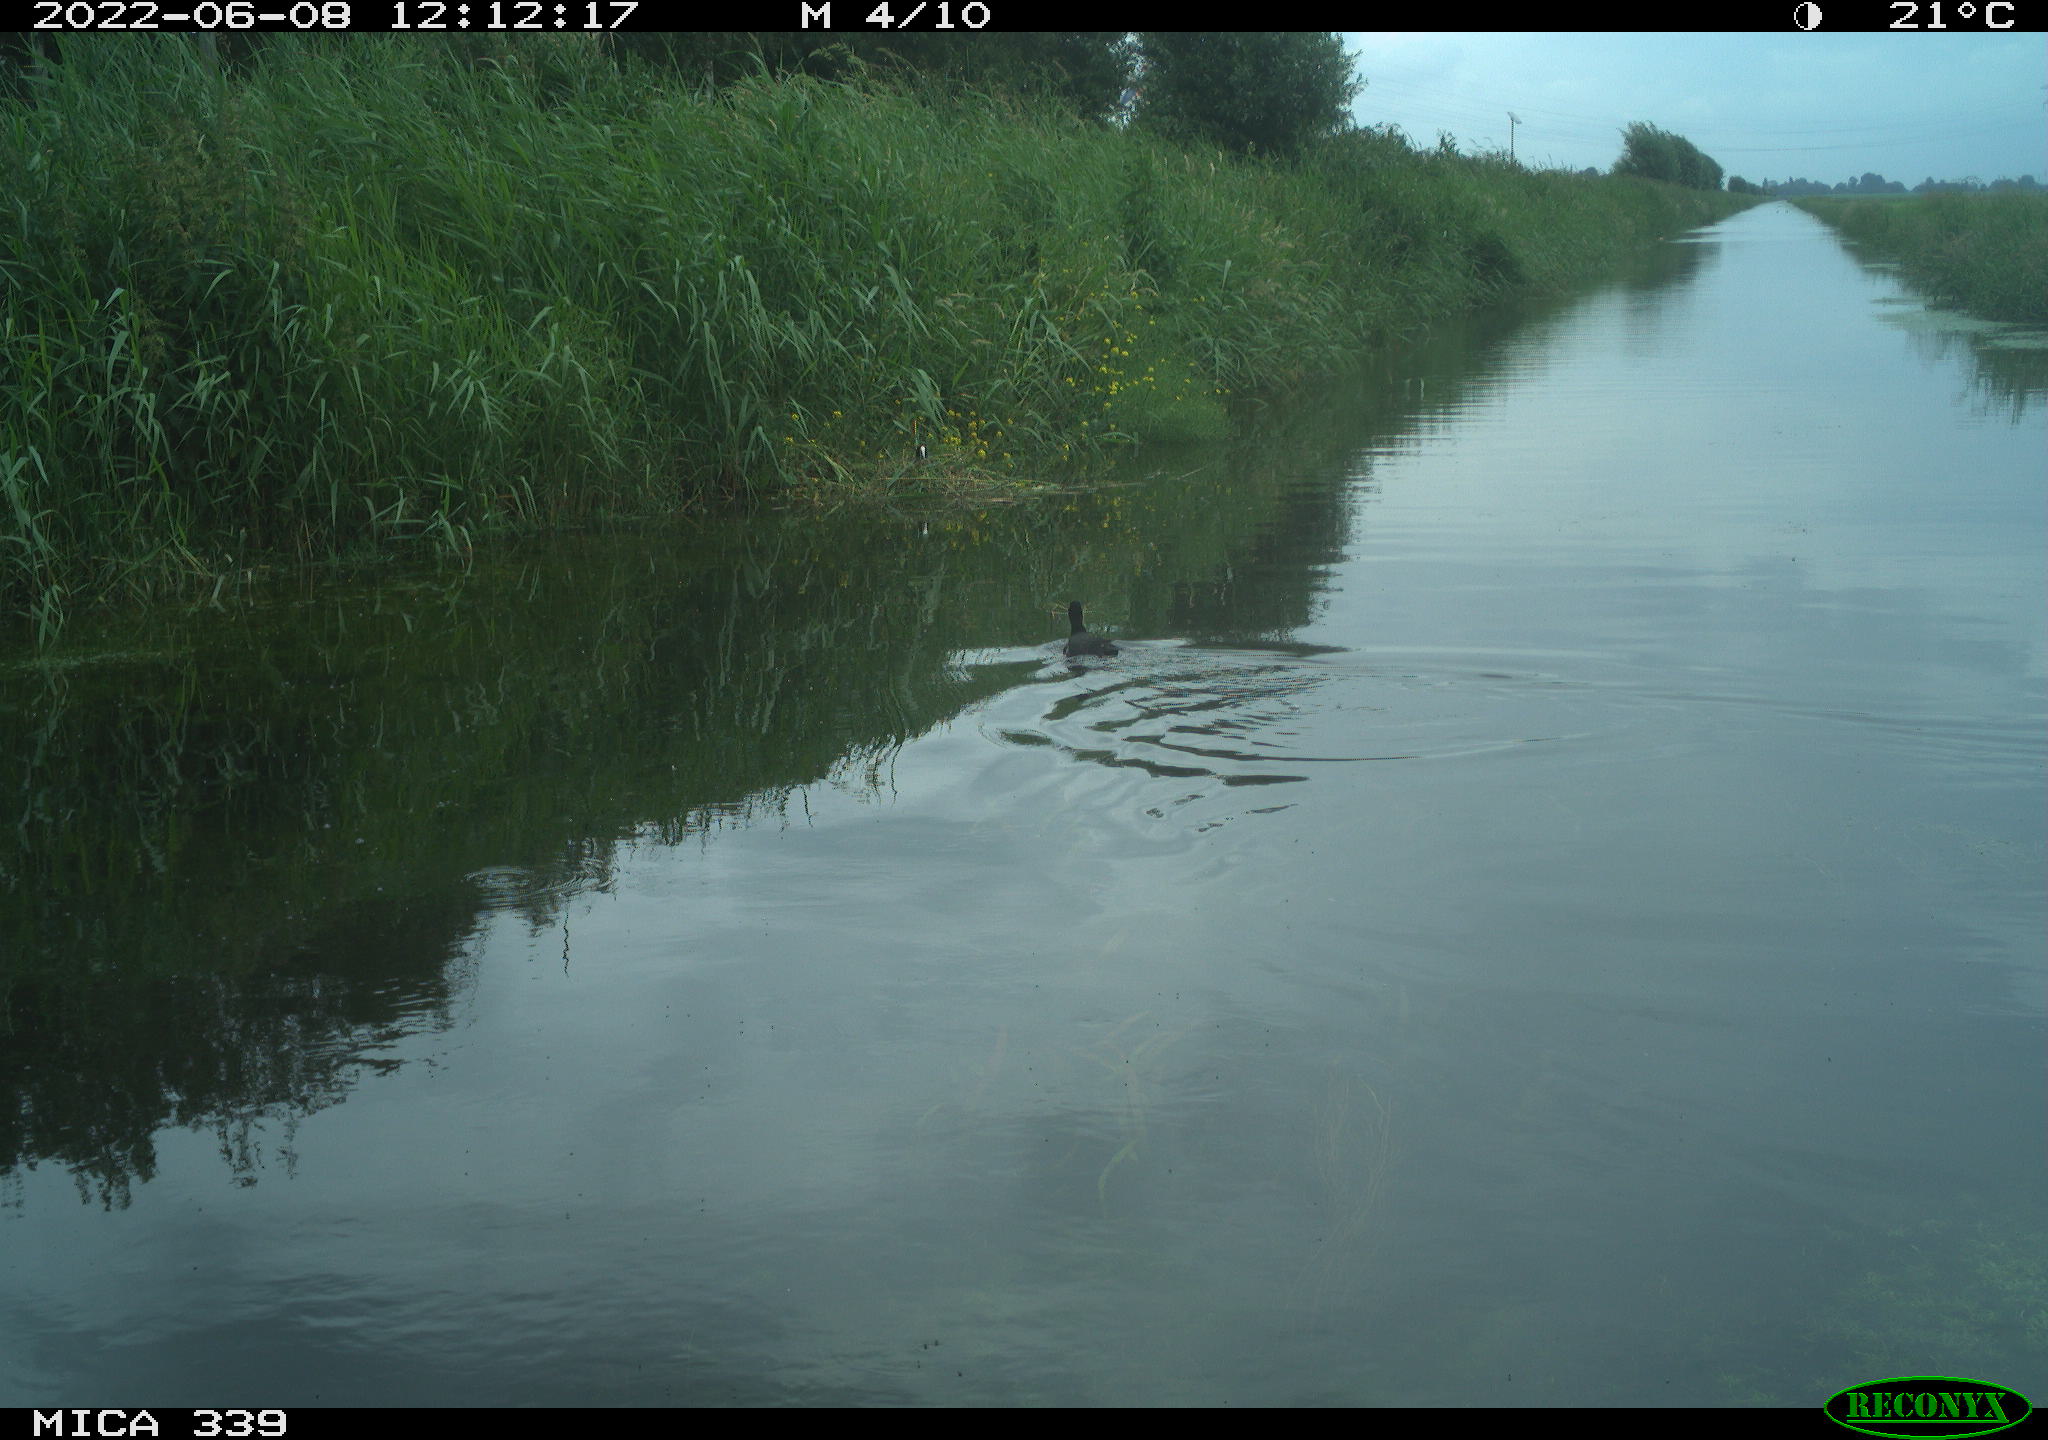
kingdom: Animalia
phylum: Chordata
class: Aves
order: Gruiformes
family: Rallidae
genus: Fulica
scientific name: Fulica atra
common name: Eurasian coot
